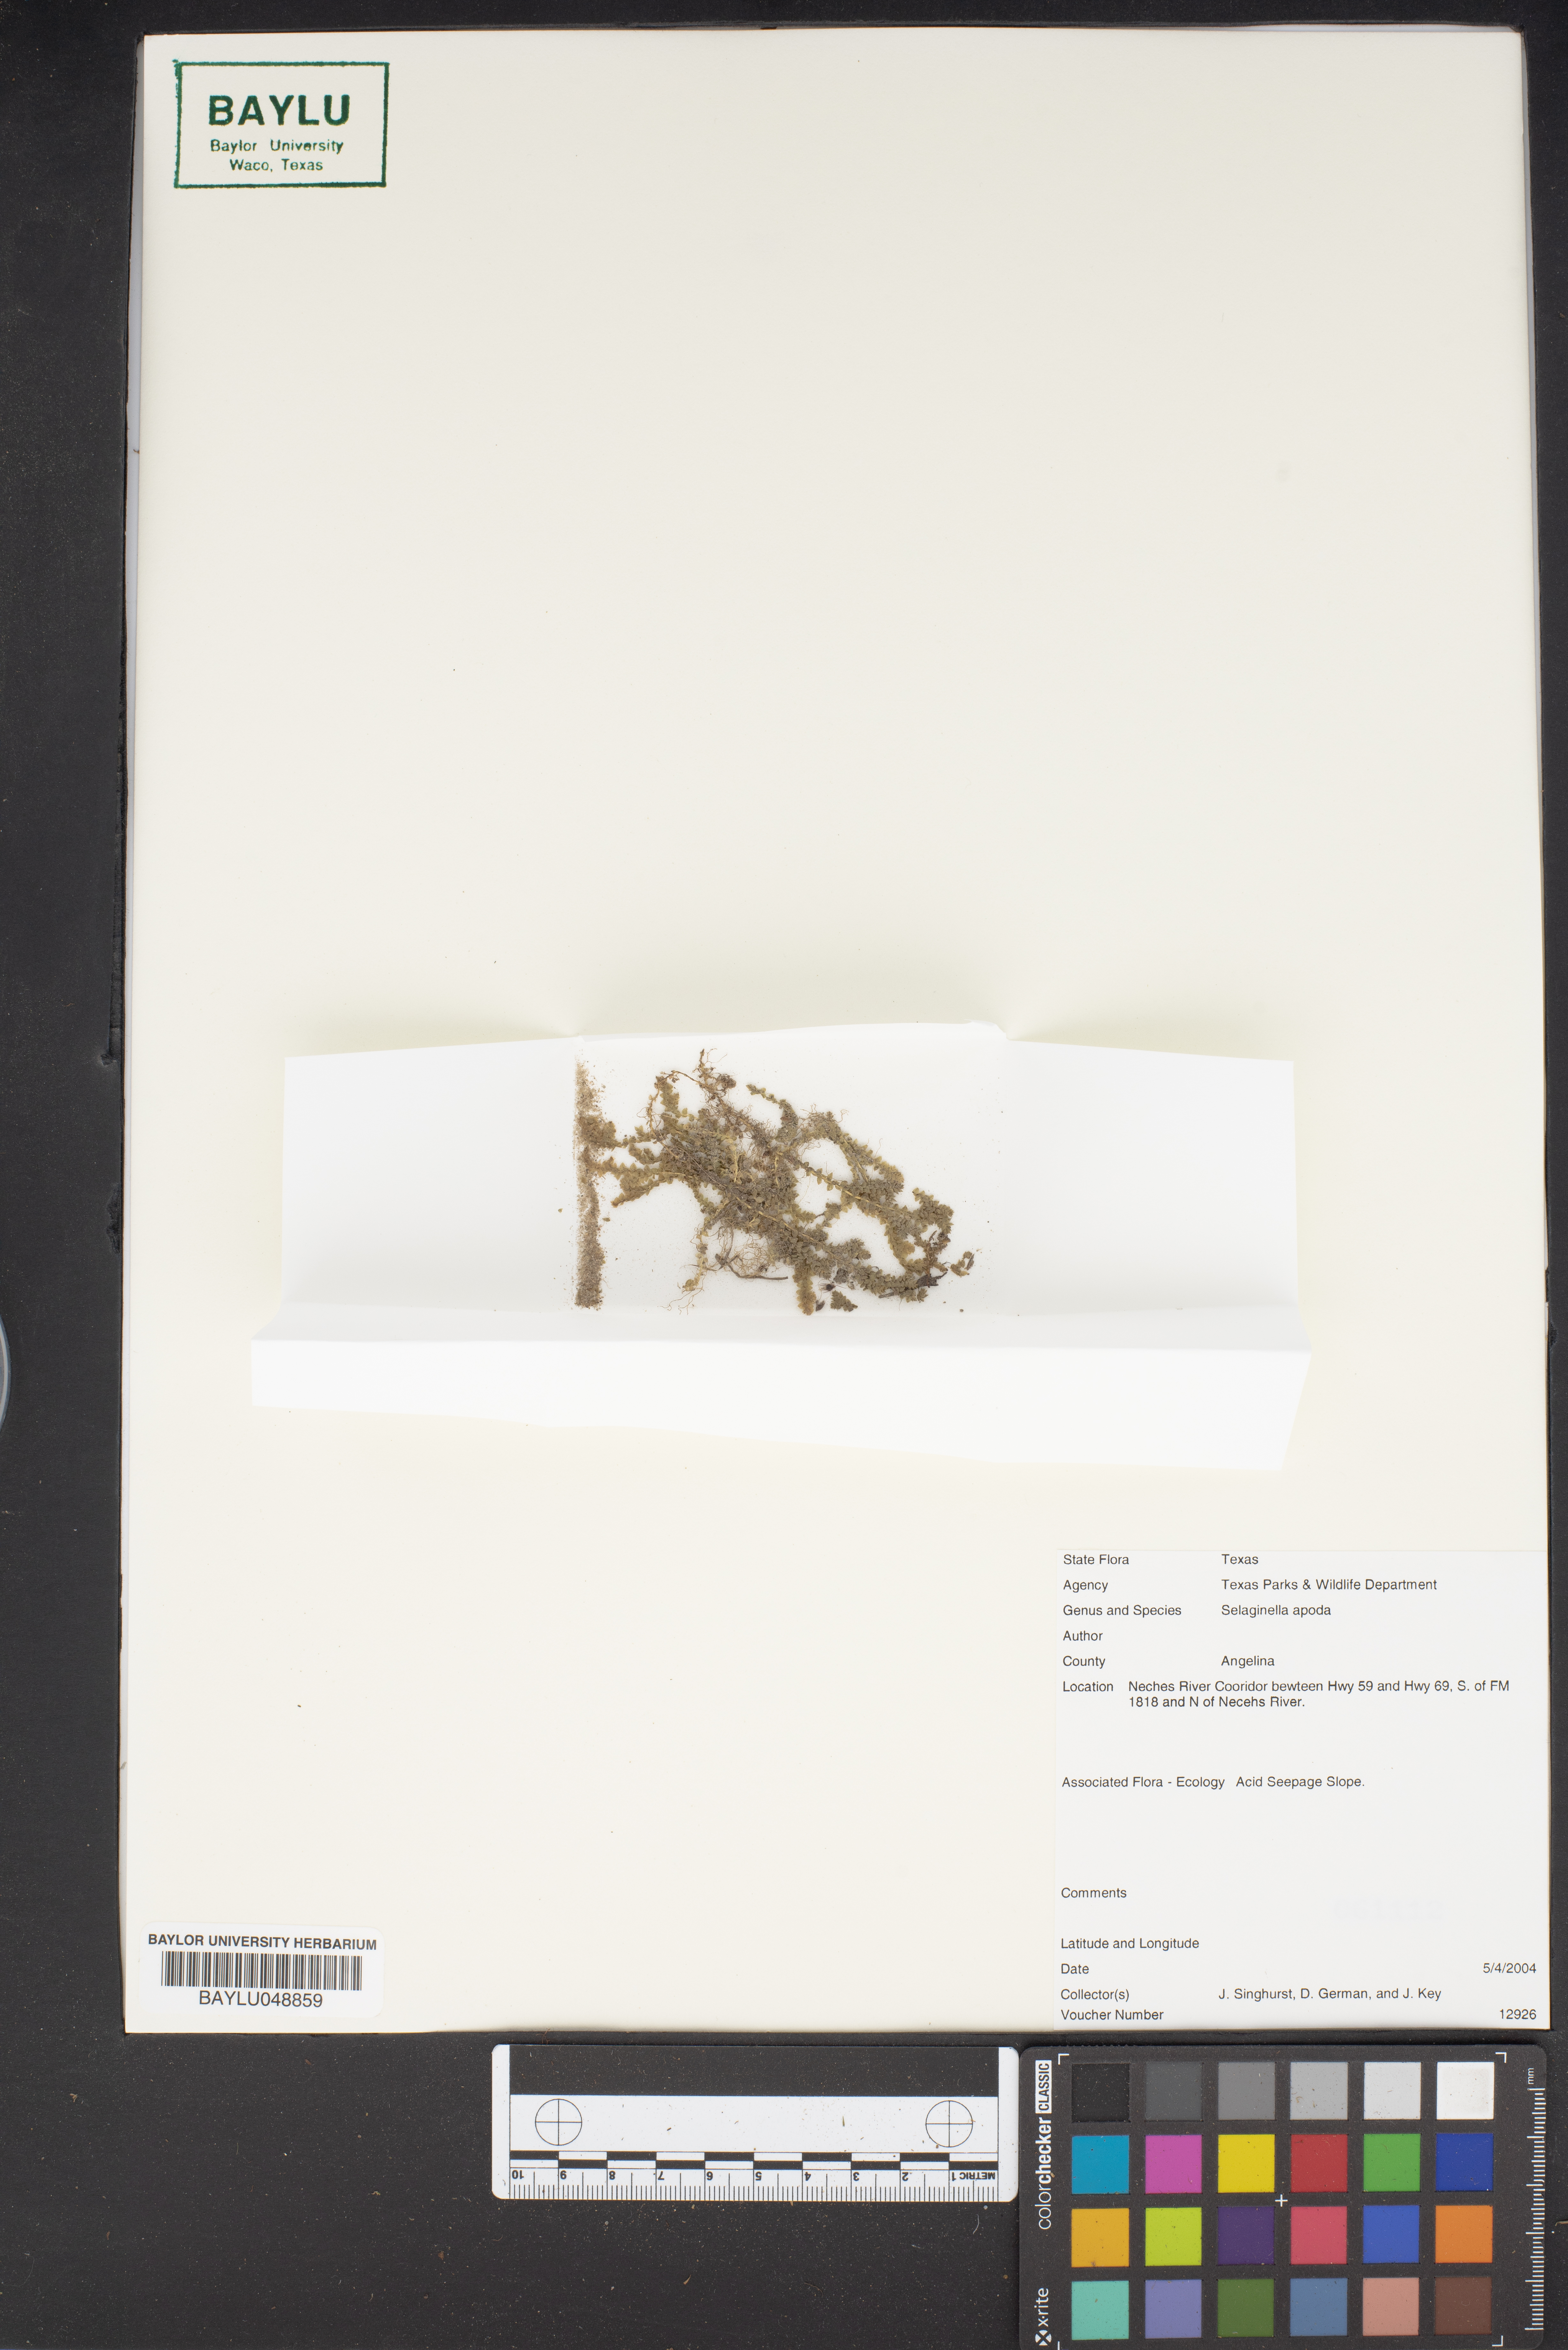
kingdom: Plantae
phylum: Tracheophyta
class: Lycopodiopsida
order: Selaginellales
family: Selaginellaceae
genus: Selaginella
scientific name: Selaginella apoda
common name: Creeping spikemoss
